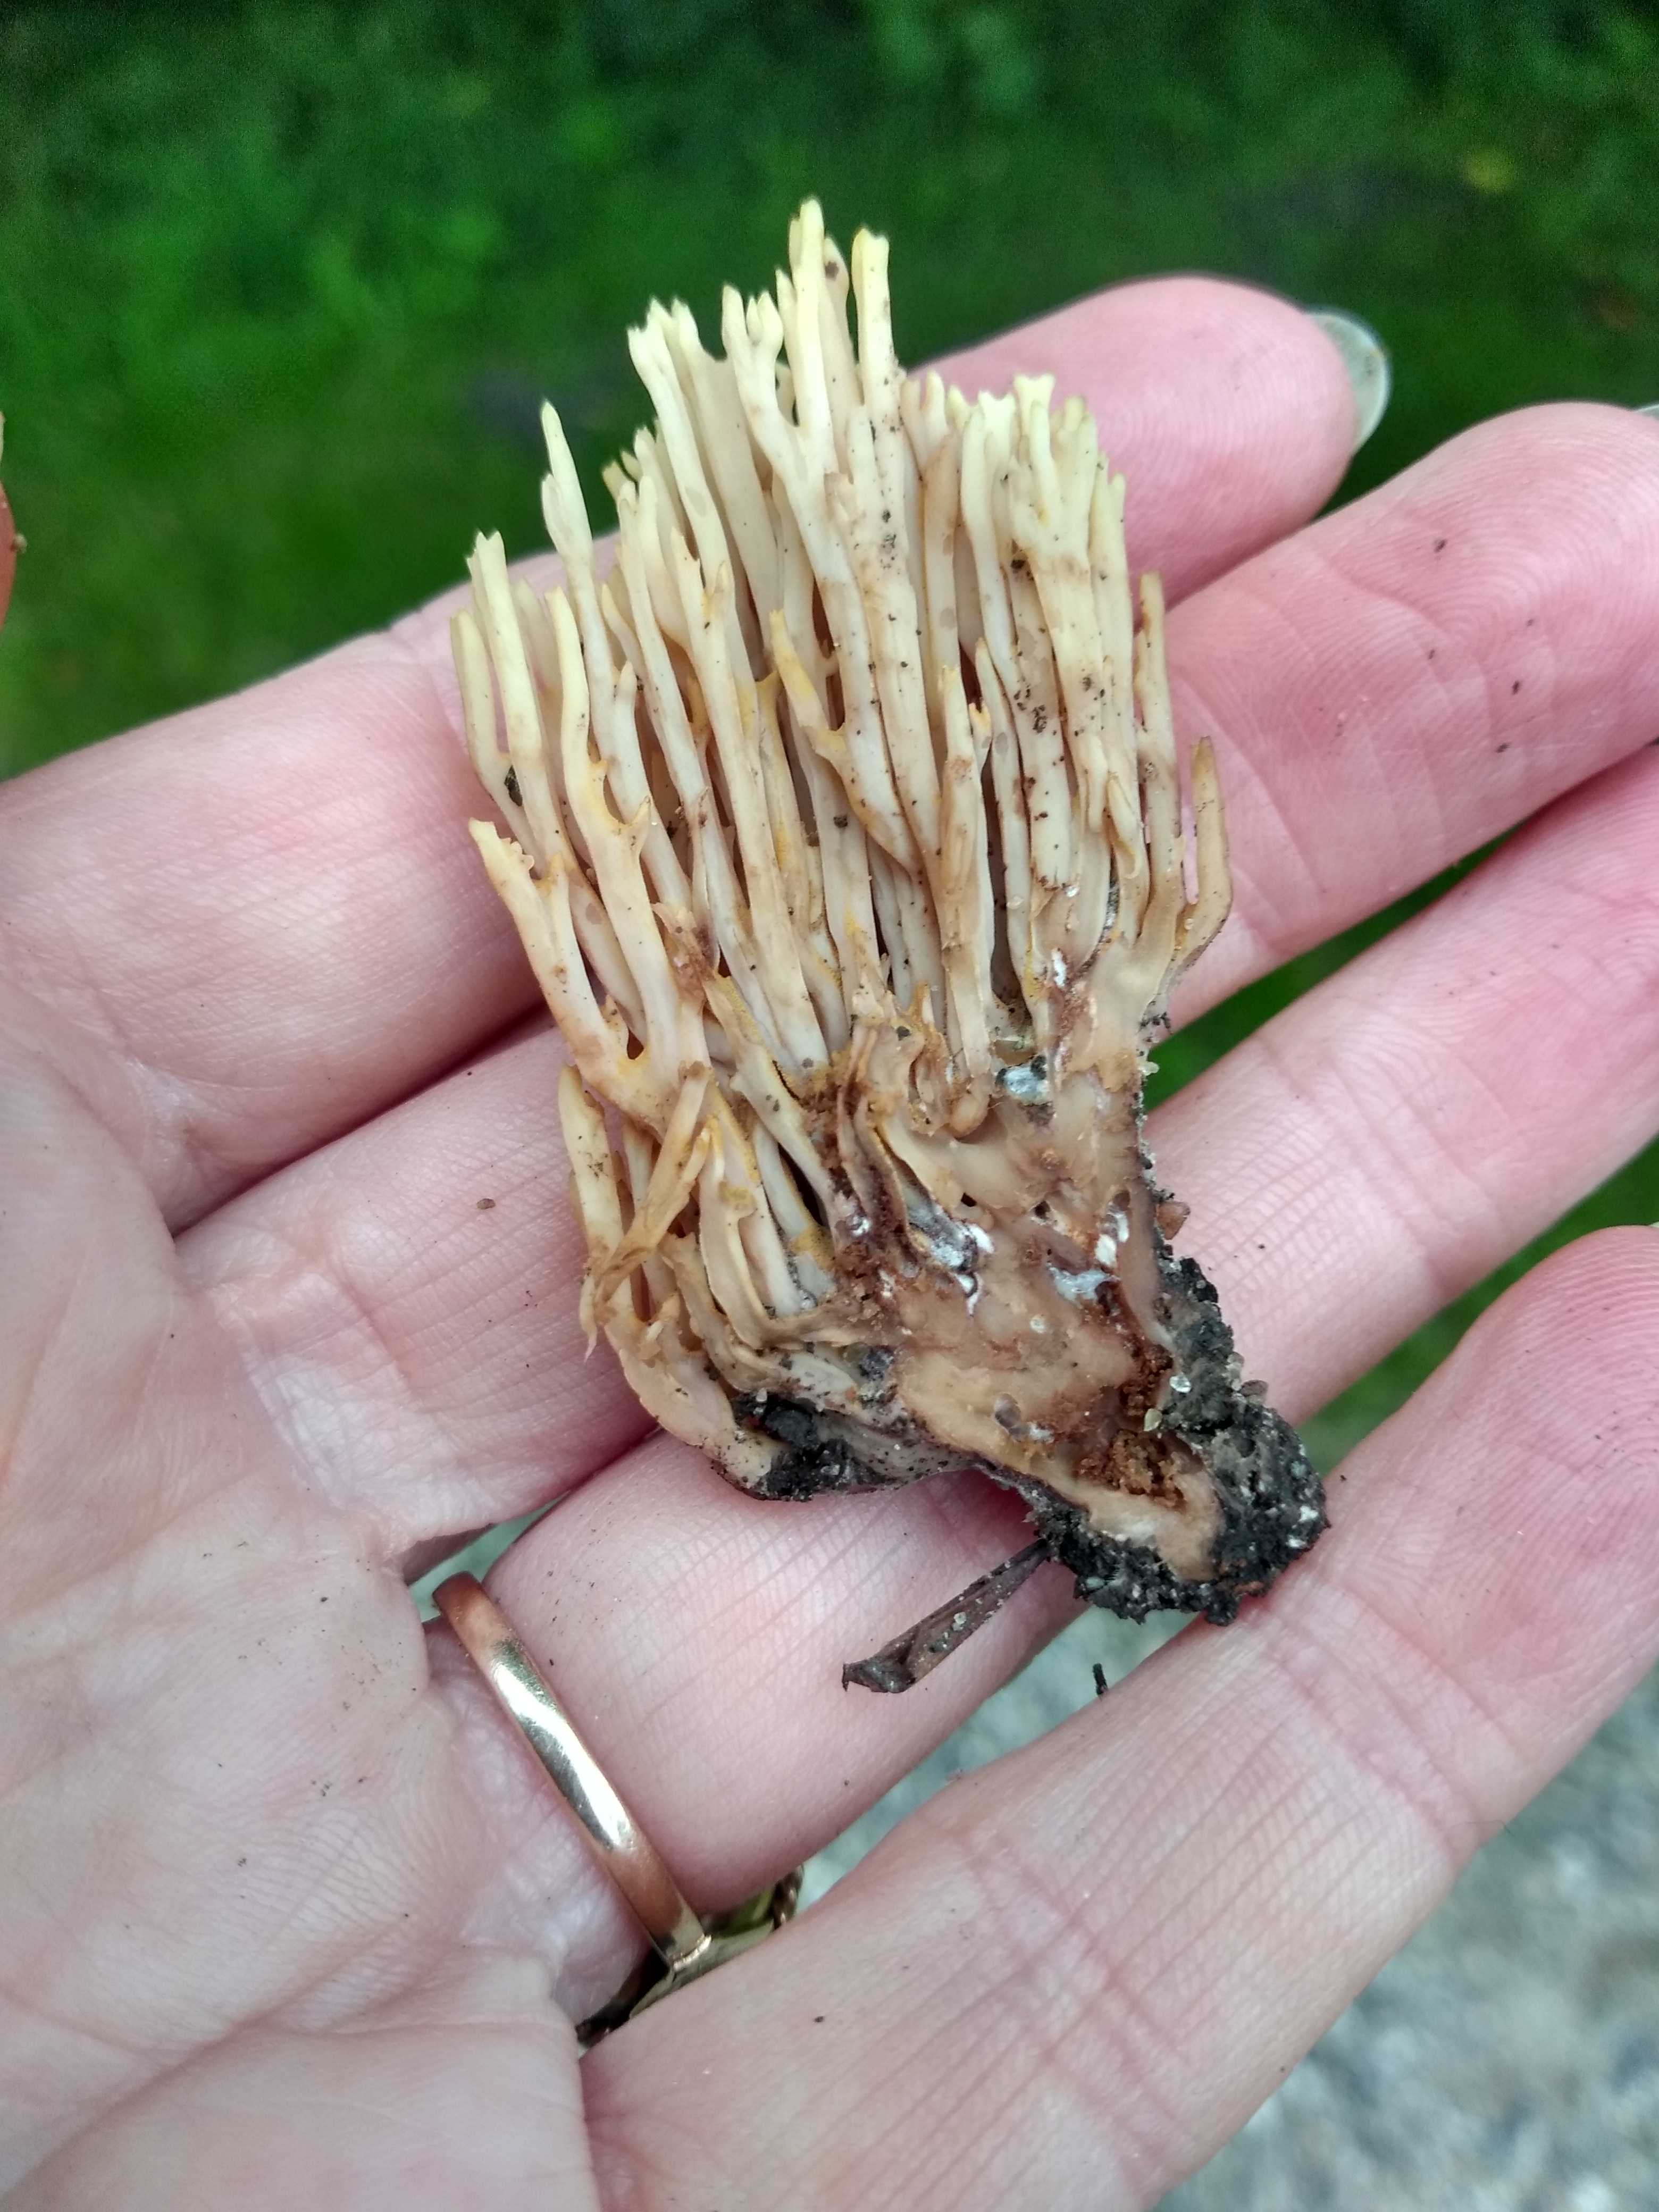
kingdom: Fungi
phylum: Basidiomycota
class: Agaricomycetes
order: Gomphales
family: Gomphaceae
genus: Ramaria
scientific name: Ramaria stricta
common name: rank koralsvamp
